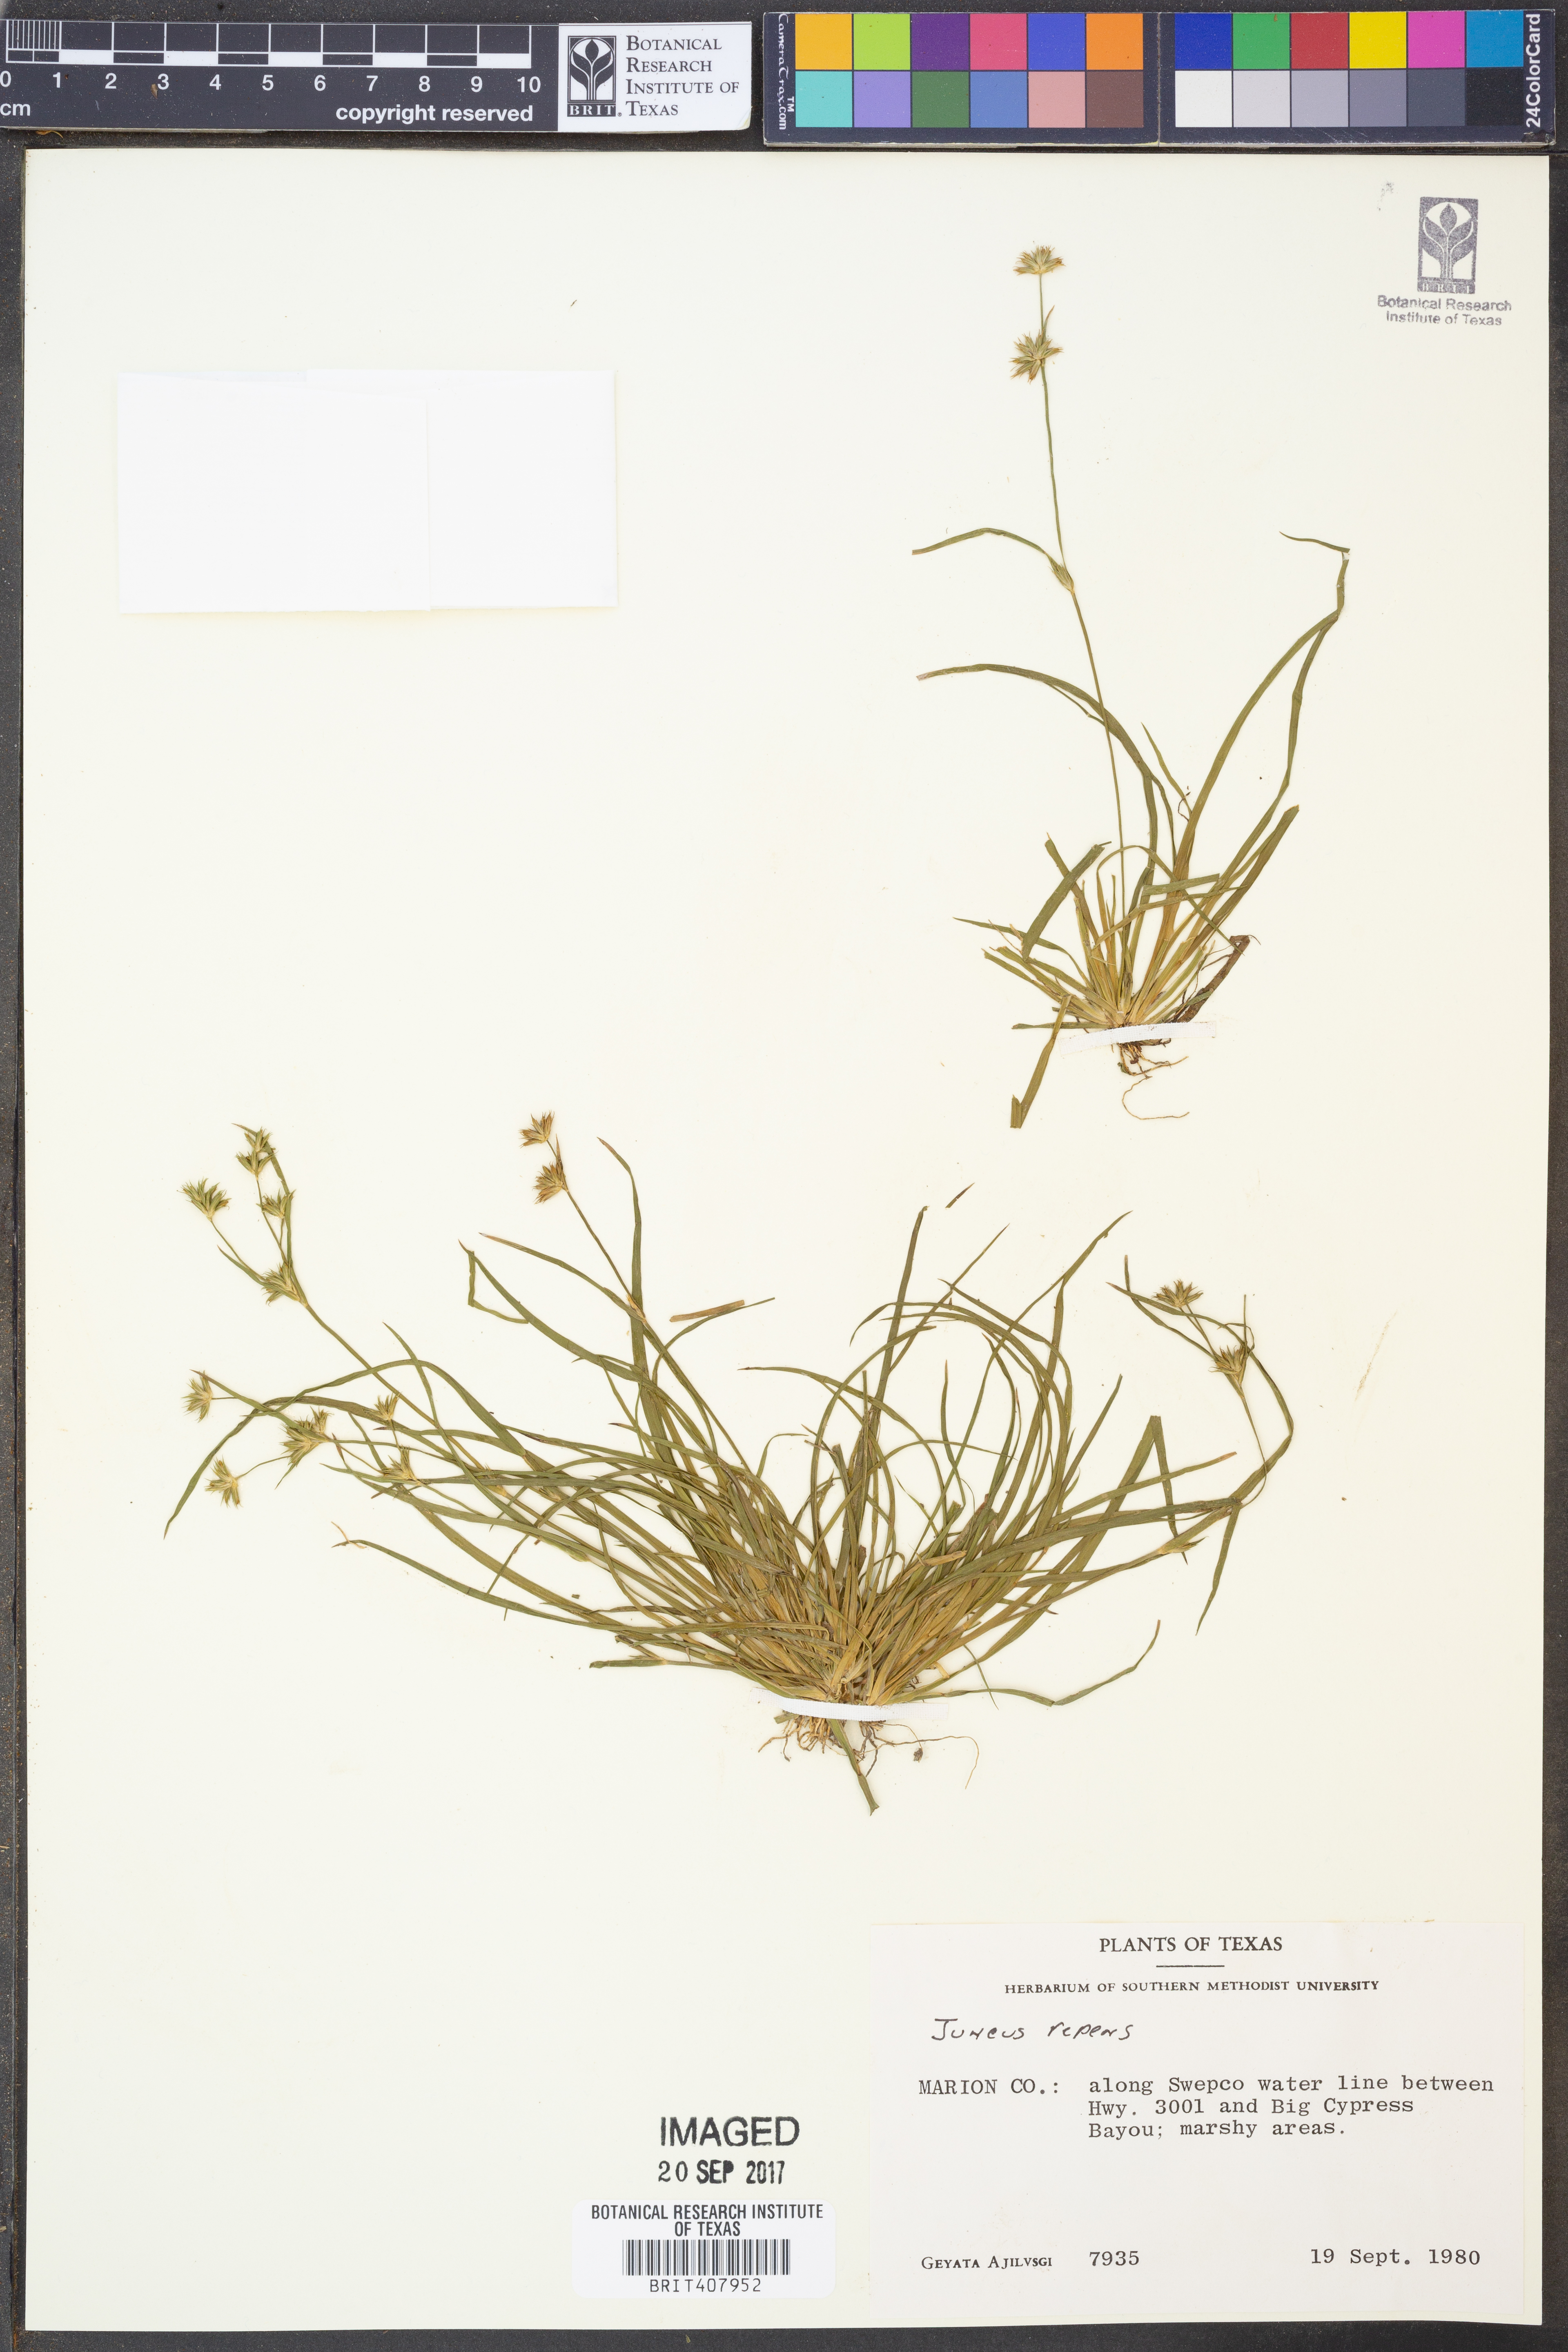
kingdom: Plantae
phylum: Tracheophyta
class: Liliopsida
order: Poales
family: Juncaceae
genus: Juncus
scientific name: Juncus repens
